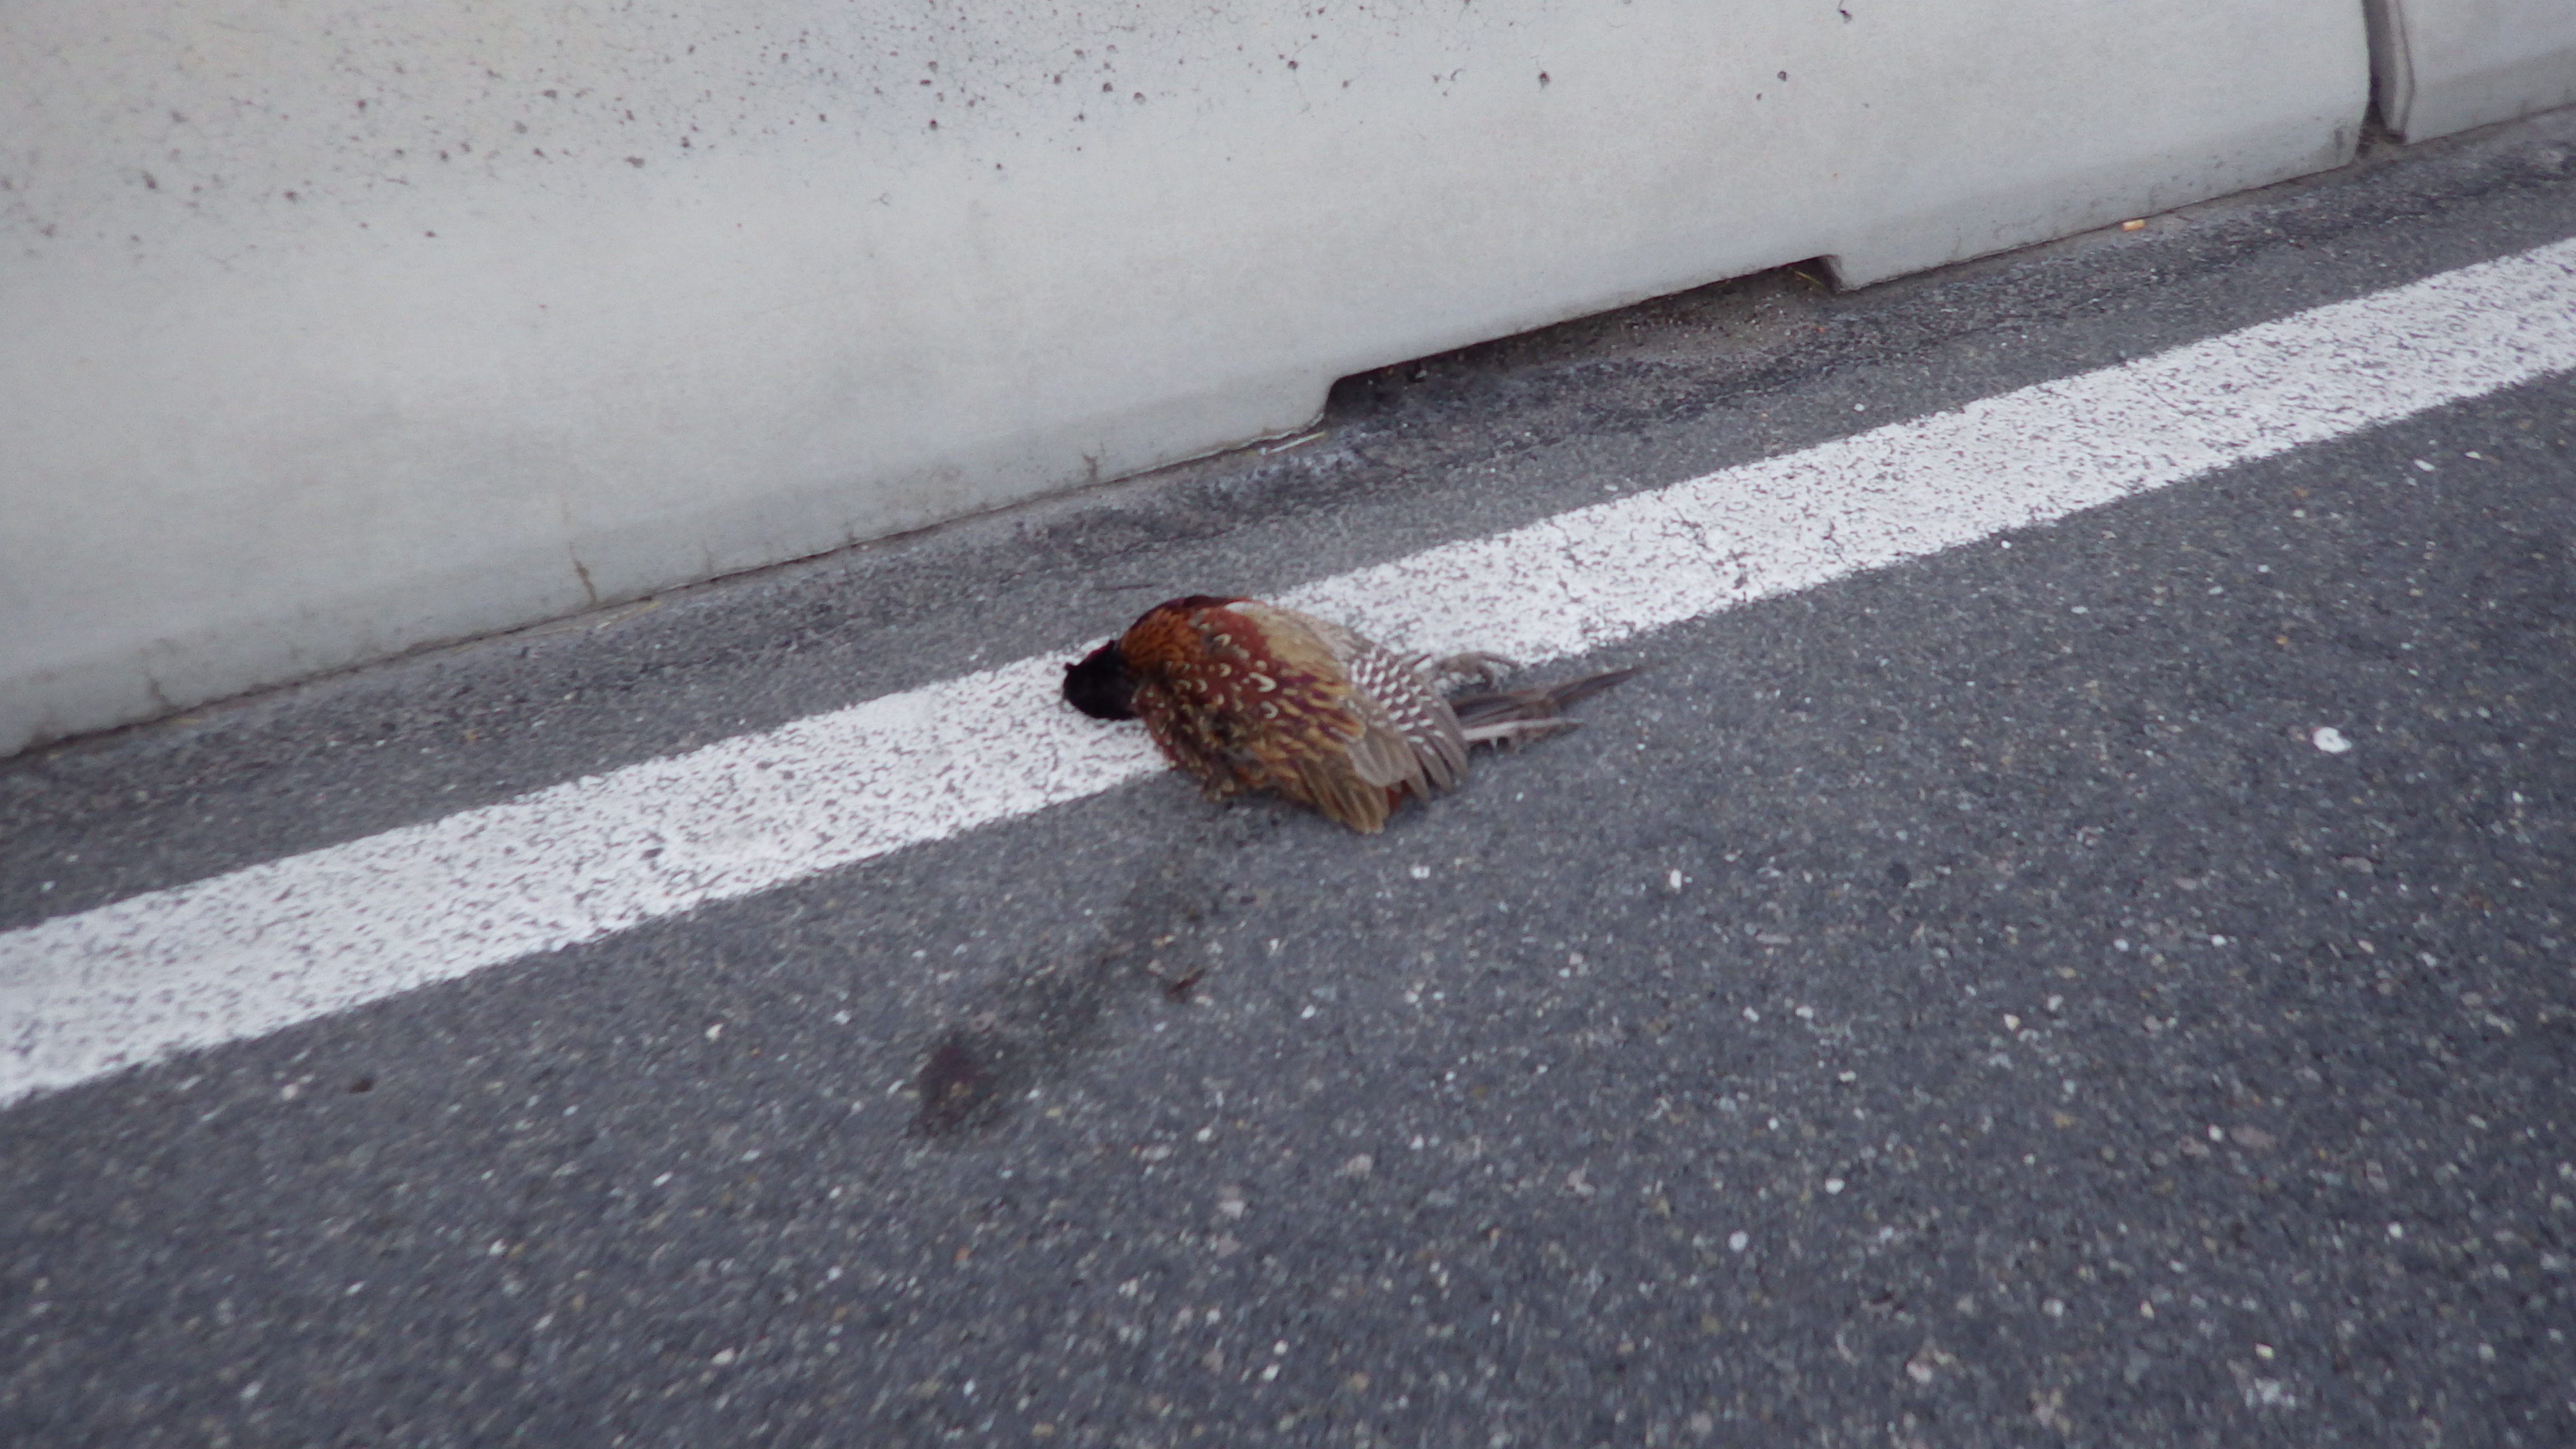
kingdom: Animalia
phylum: Chordata
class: Aves
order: Galliformes
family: Phasianidae
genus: Phasianus
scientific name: Phasianus colchicus
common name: Common pheasant
